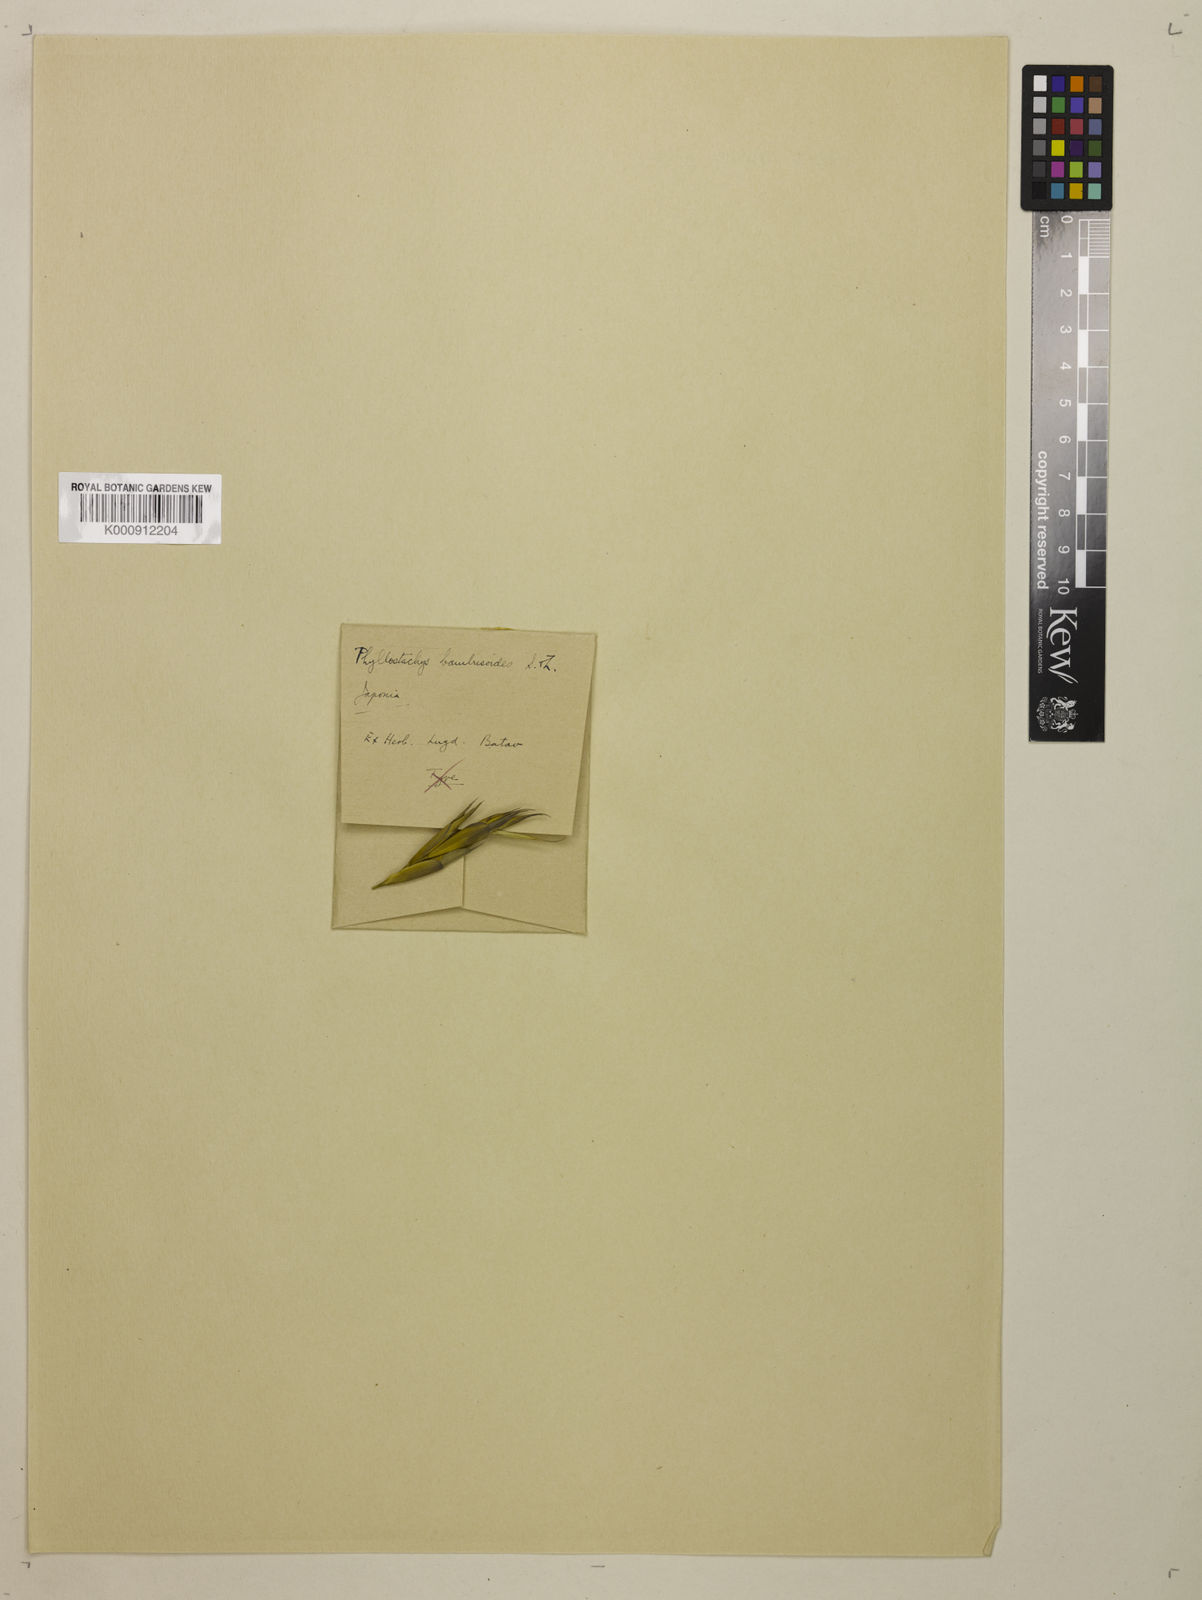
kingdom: Plantae
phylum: Tracheophyta
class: Liliopsida
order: Poales
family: Poaceae
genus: Phyllostachys
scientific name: Phyllostachys reticulata
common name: Bamboo
